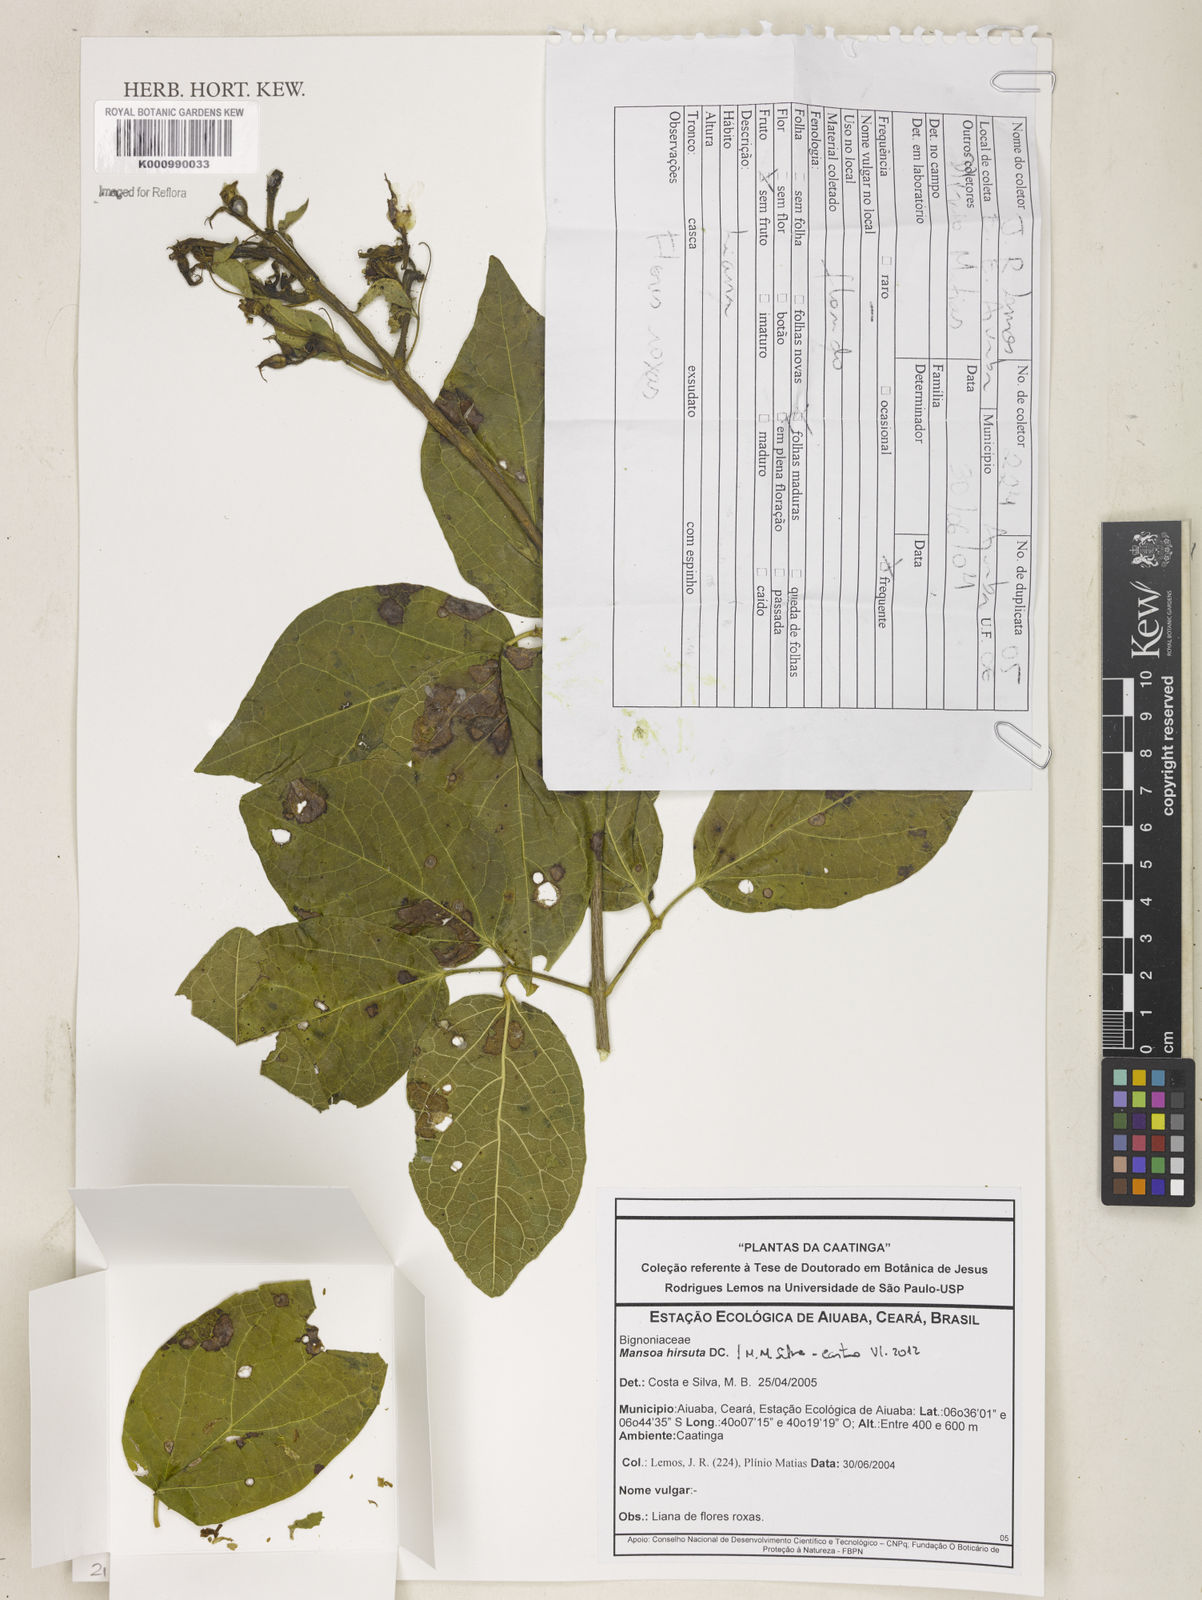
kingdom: Plantae
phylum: Tracheophyta
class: Magnoliopsida
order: Lamiales
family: Bignoniaceae
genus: Mansoa
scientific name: Mansoa hirsuta
